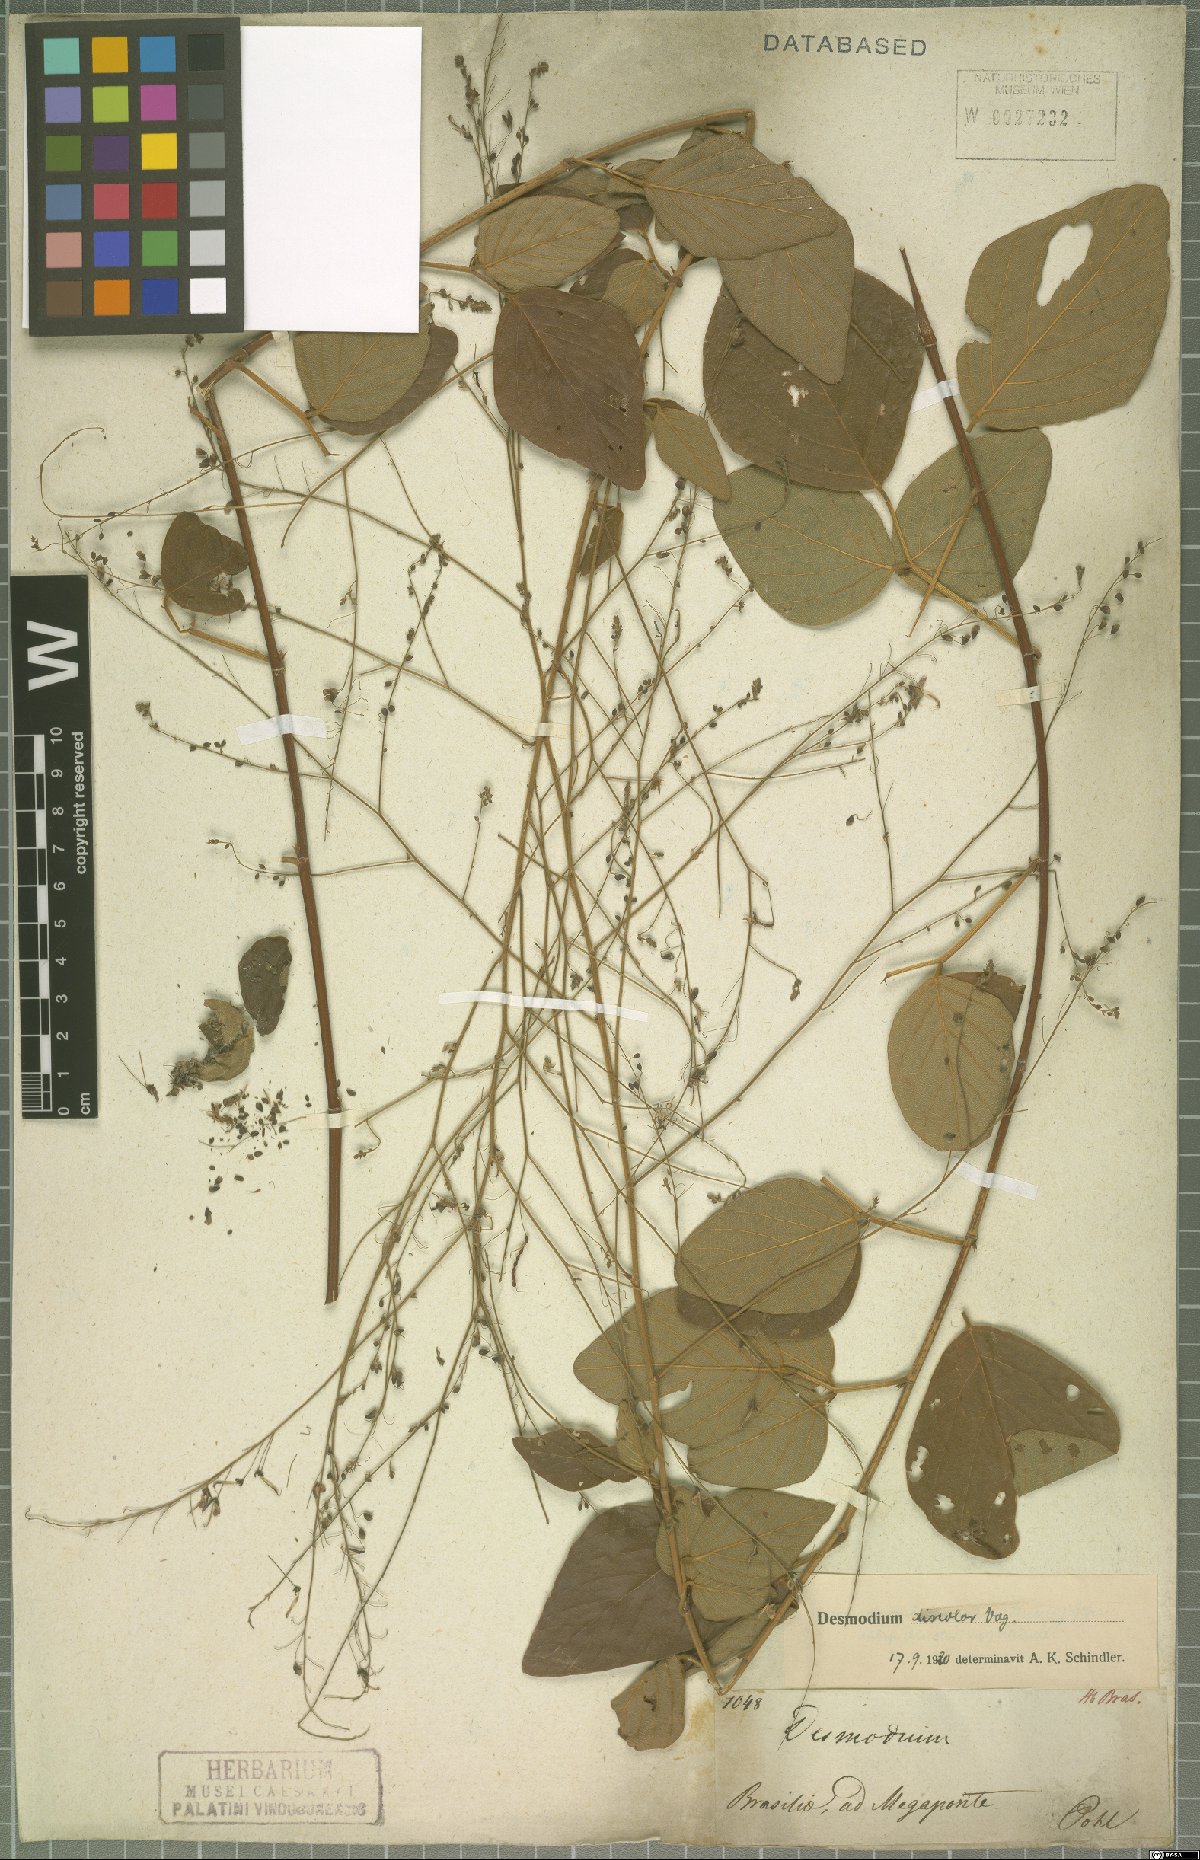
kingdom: Plantae
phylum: Tracheophyta
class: Magnoliopsida
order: Fabales
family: Fabaceae
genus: Desmodium
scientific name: Desmodium subsecundum
